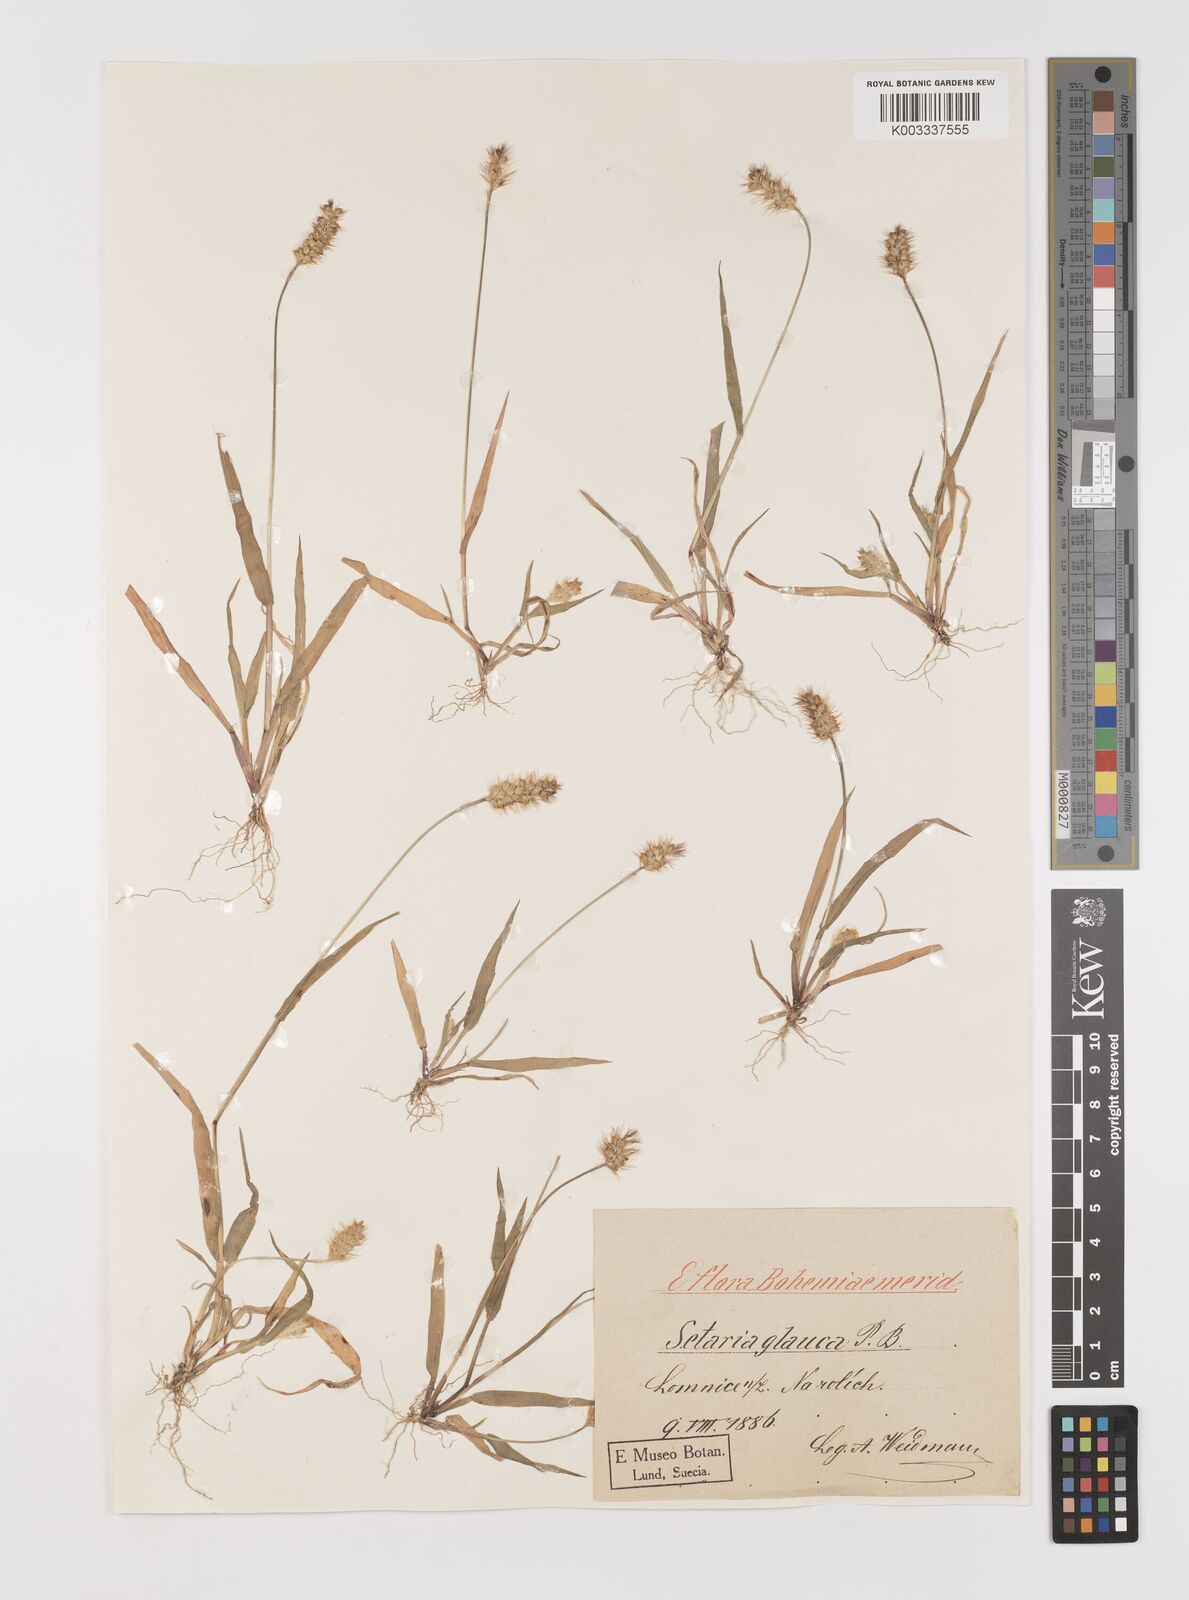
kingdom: Plantae
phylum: Tracheophyta
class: Liliopsida
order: Poales
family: Poaceae
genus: Setaria
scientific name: Setaria pumila
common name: Yellow bristle-grass
